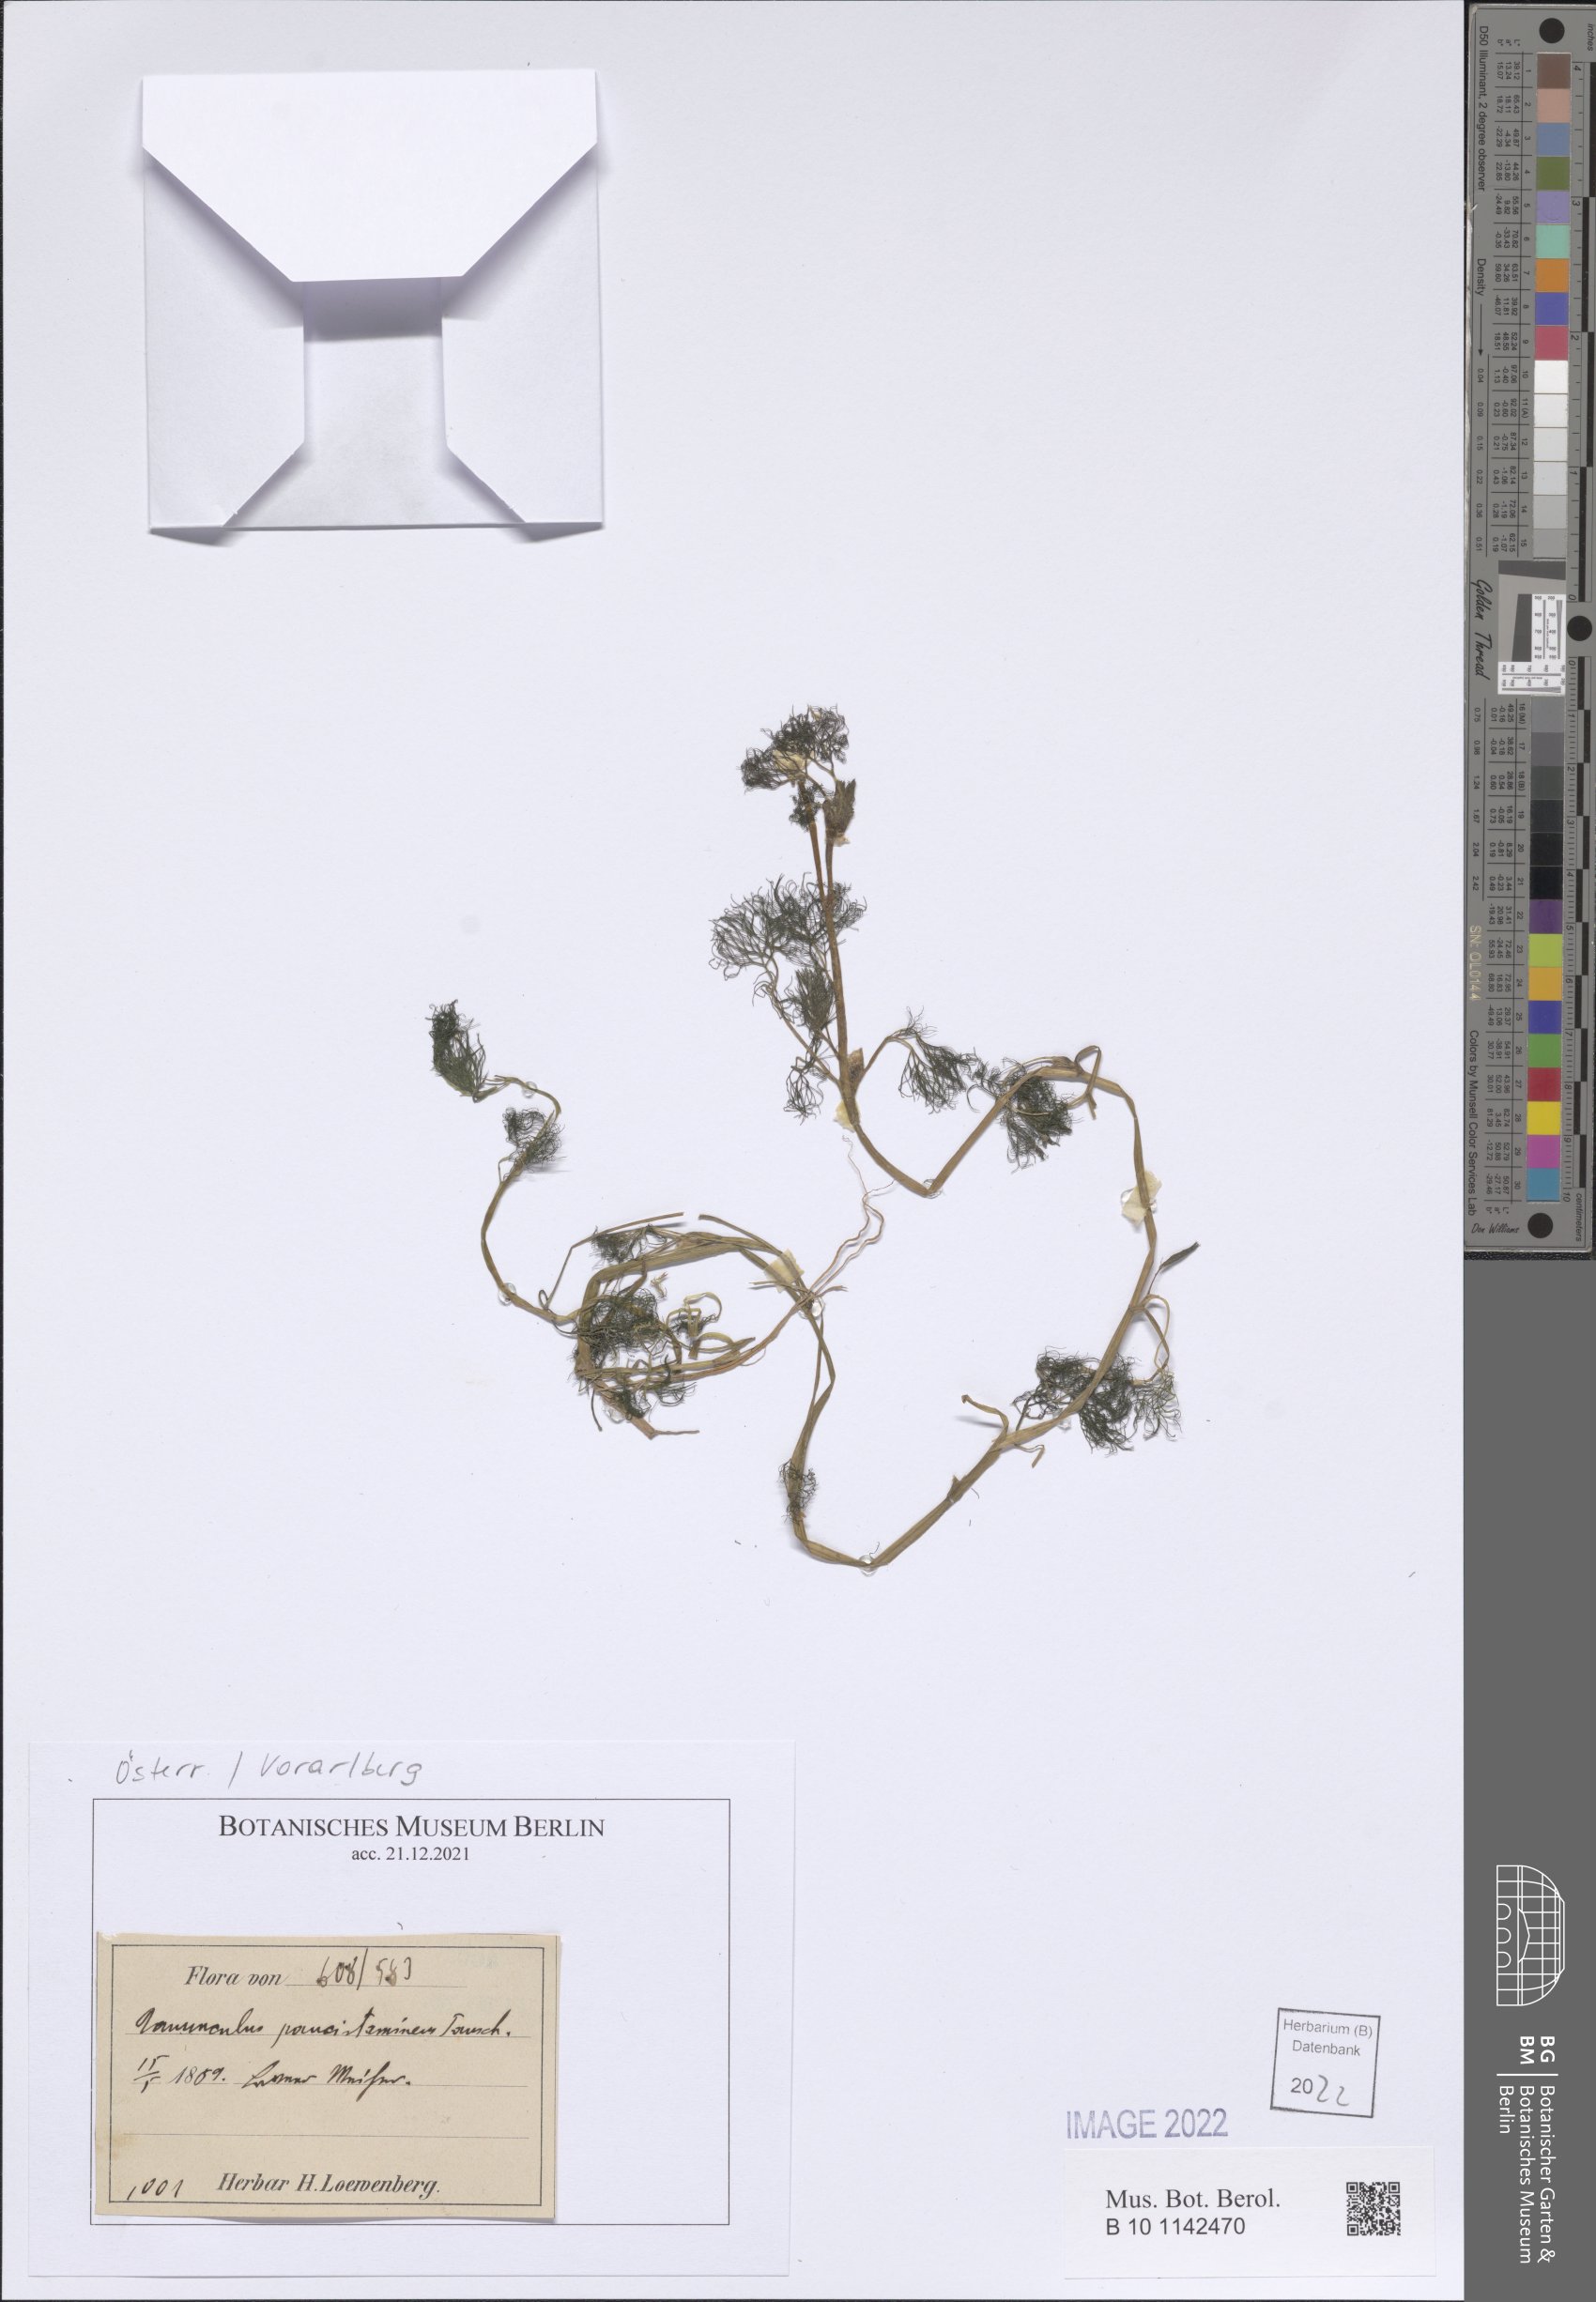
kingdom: Plantae
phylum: Tracheophyta
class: Magnoliopsida
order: Ranunculales
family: Ranunculaceae
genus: Ranunculus
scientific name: Ranunculus trichophyllus
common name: Thread-leaved water-crowfoot
